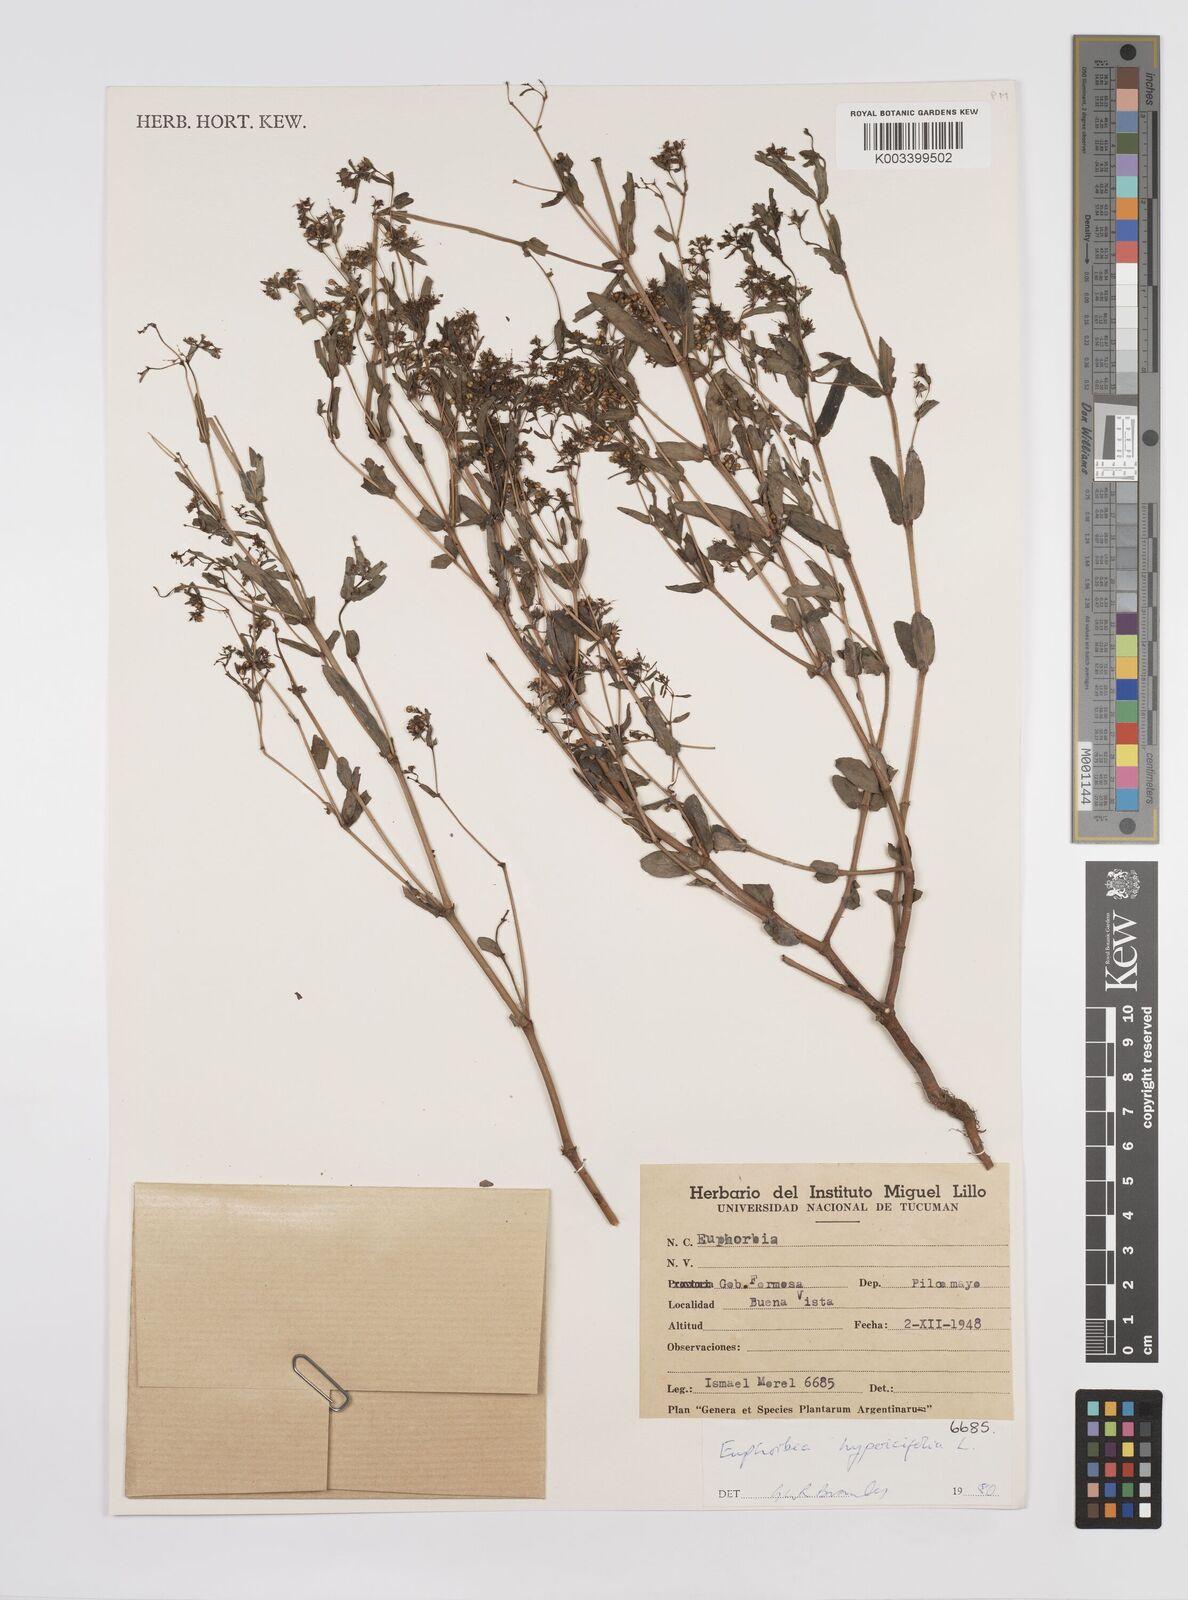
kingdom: Plantae
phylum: Tracheophyta
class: Magnoliopsida
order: Malpighiales
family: Euphorbiaceae
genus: Euphorbia
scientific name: Euphorbia hypericifolia
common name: Graceful sandmat
